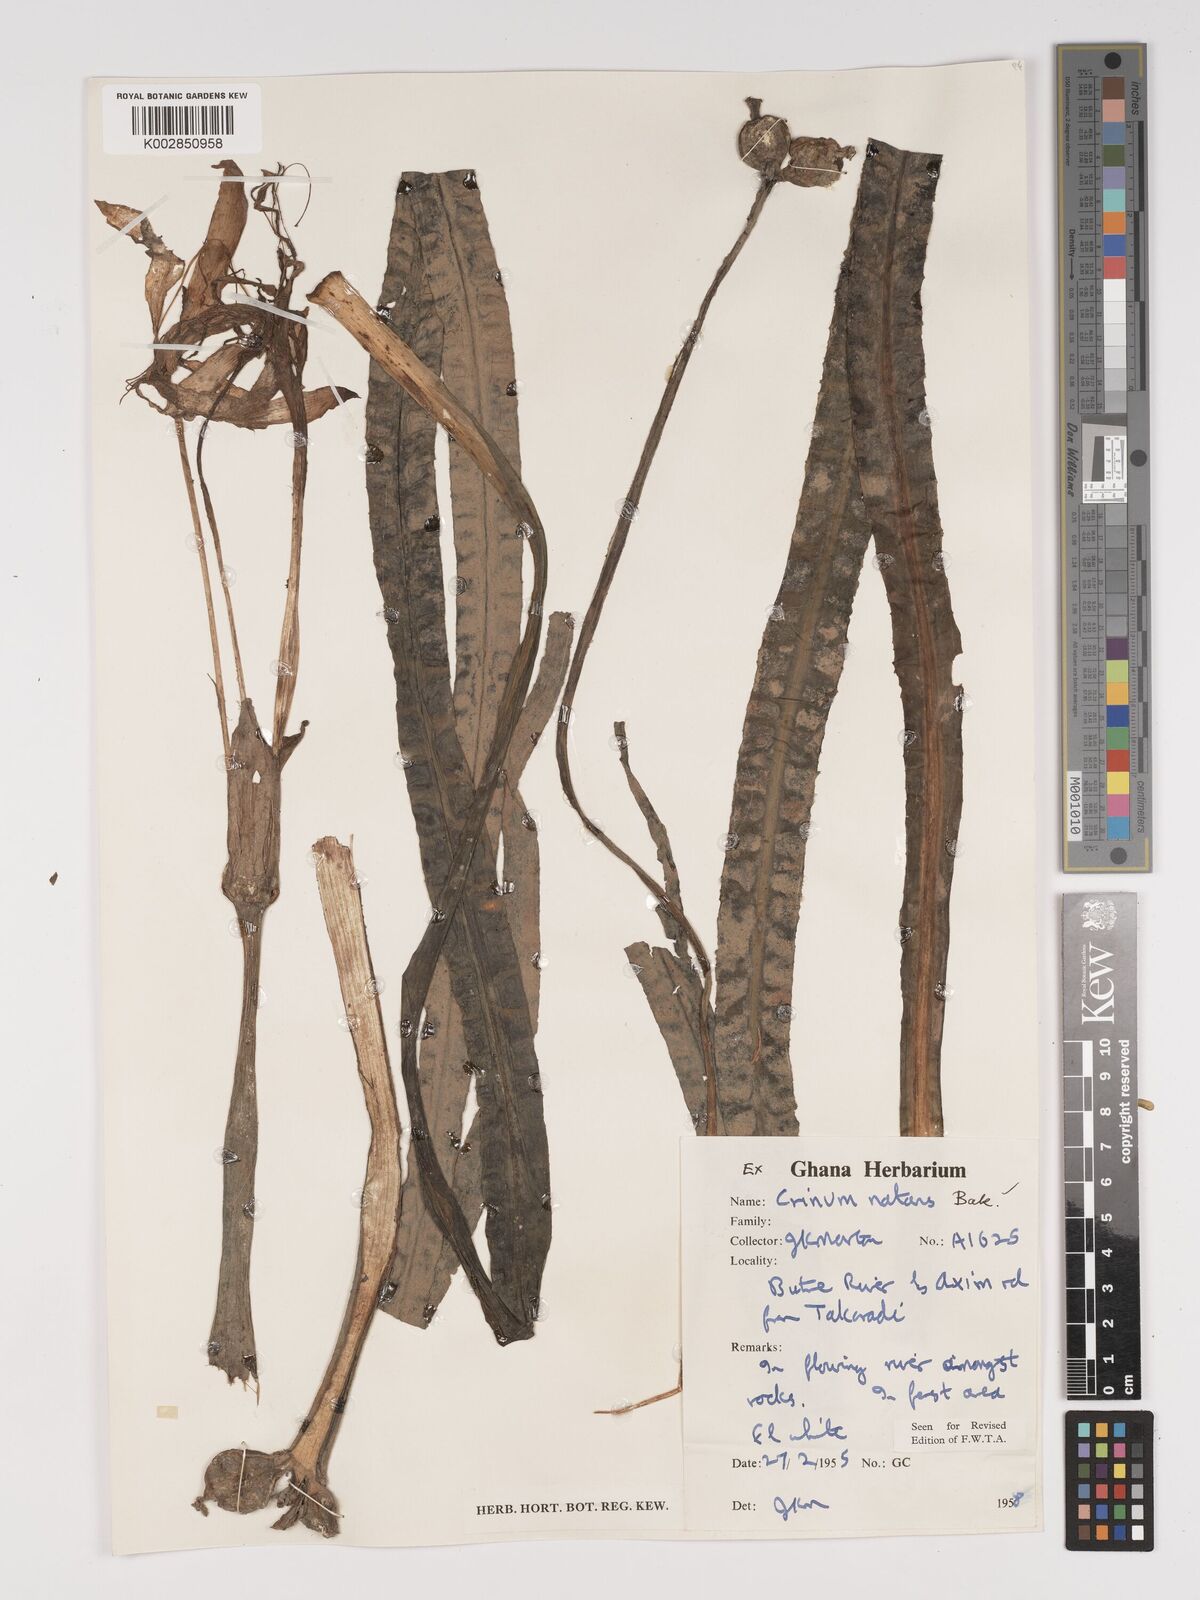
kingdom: Plantae
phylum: Tracheophyta
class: Liliopsida
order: Asparagales
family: Amaryllidaceae
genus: Crinum
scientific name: Crinum moorei
